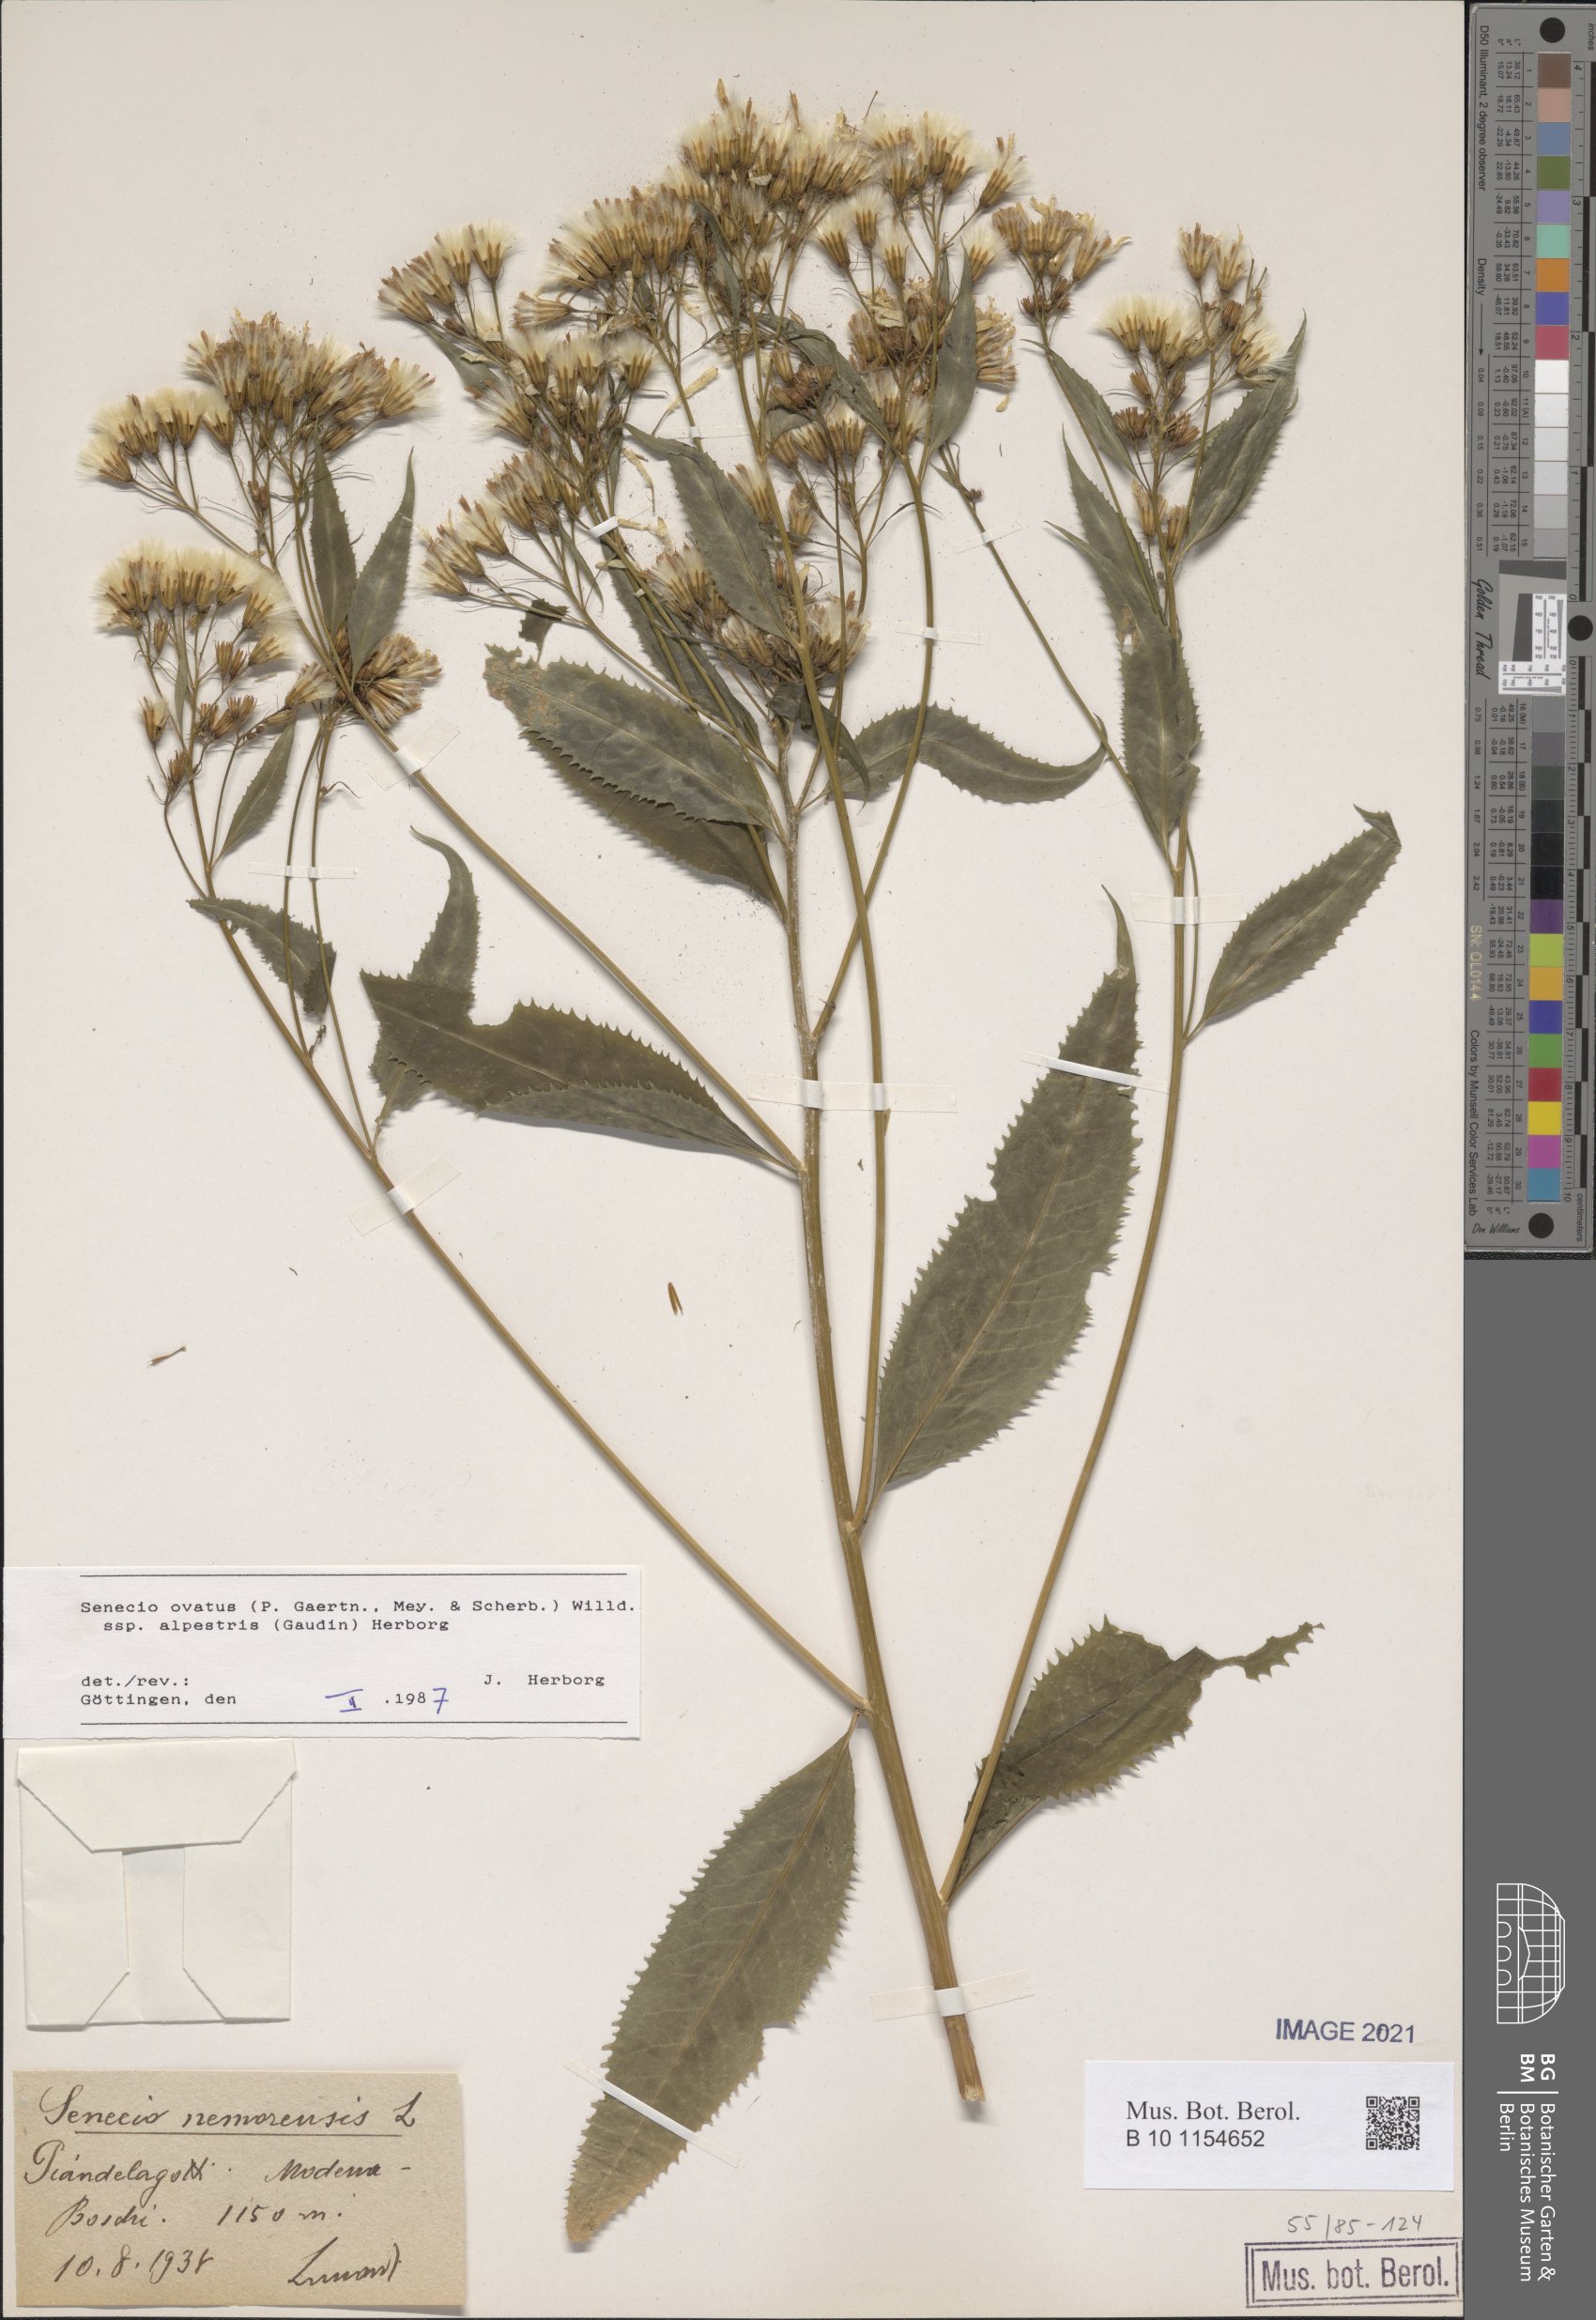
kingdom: Plantae
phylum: Tracheophyta
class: Magnoliopsida
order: Asterales
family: Asteraceae
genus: Senecio
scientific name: Senecio ovatus
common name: Wood ragwort
